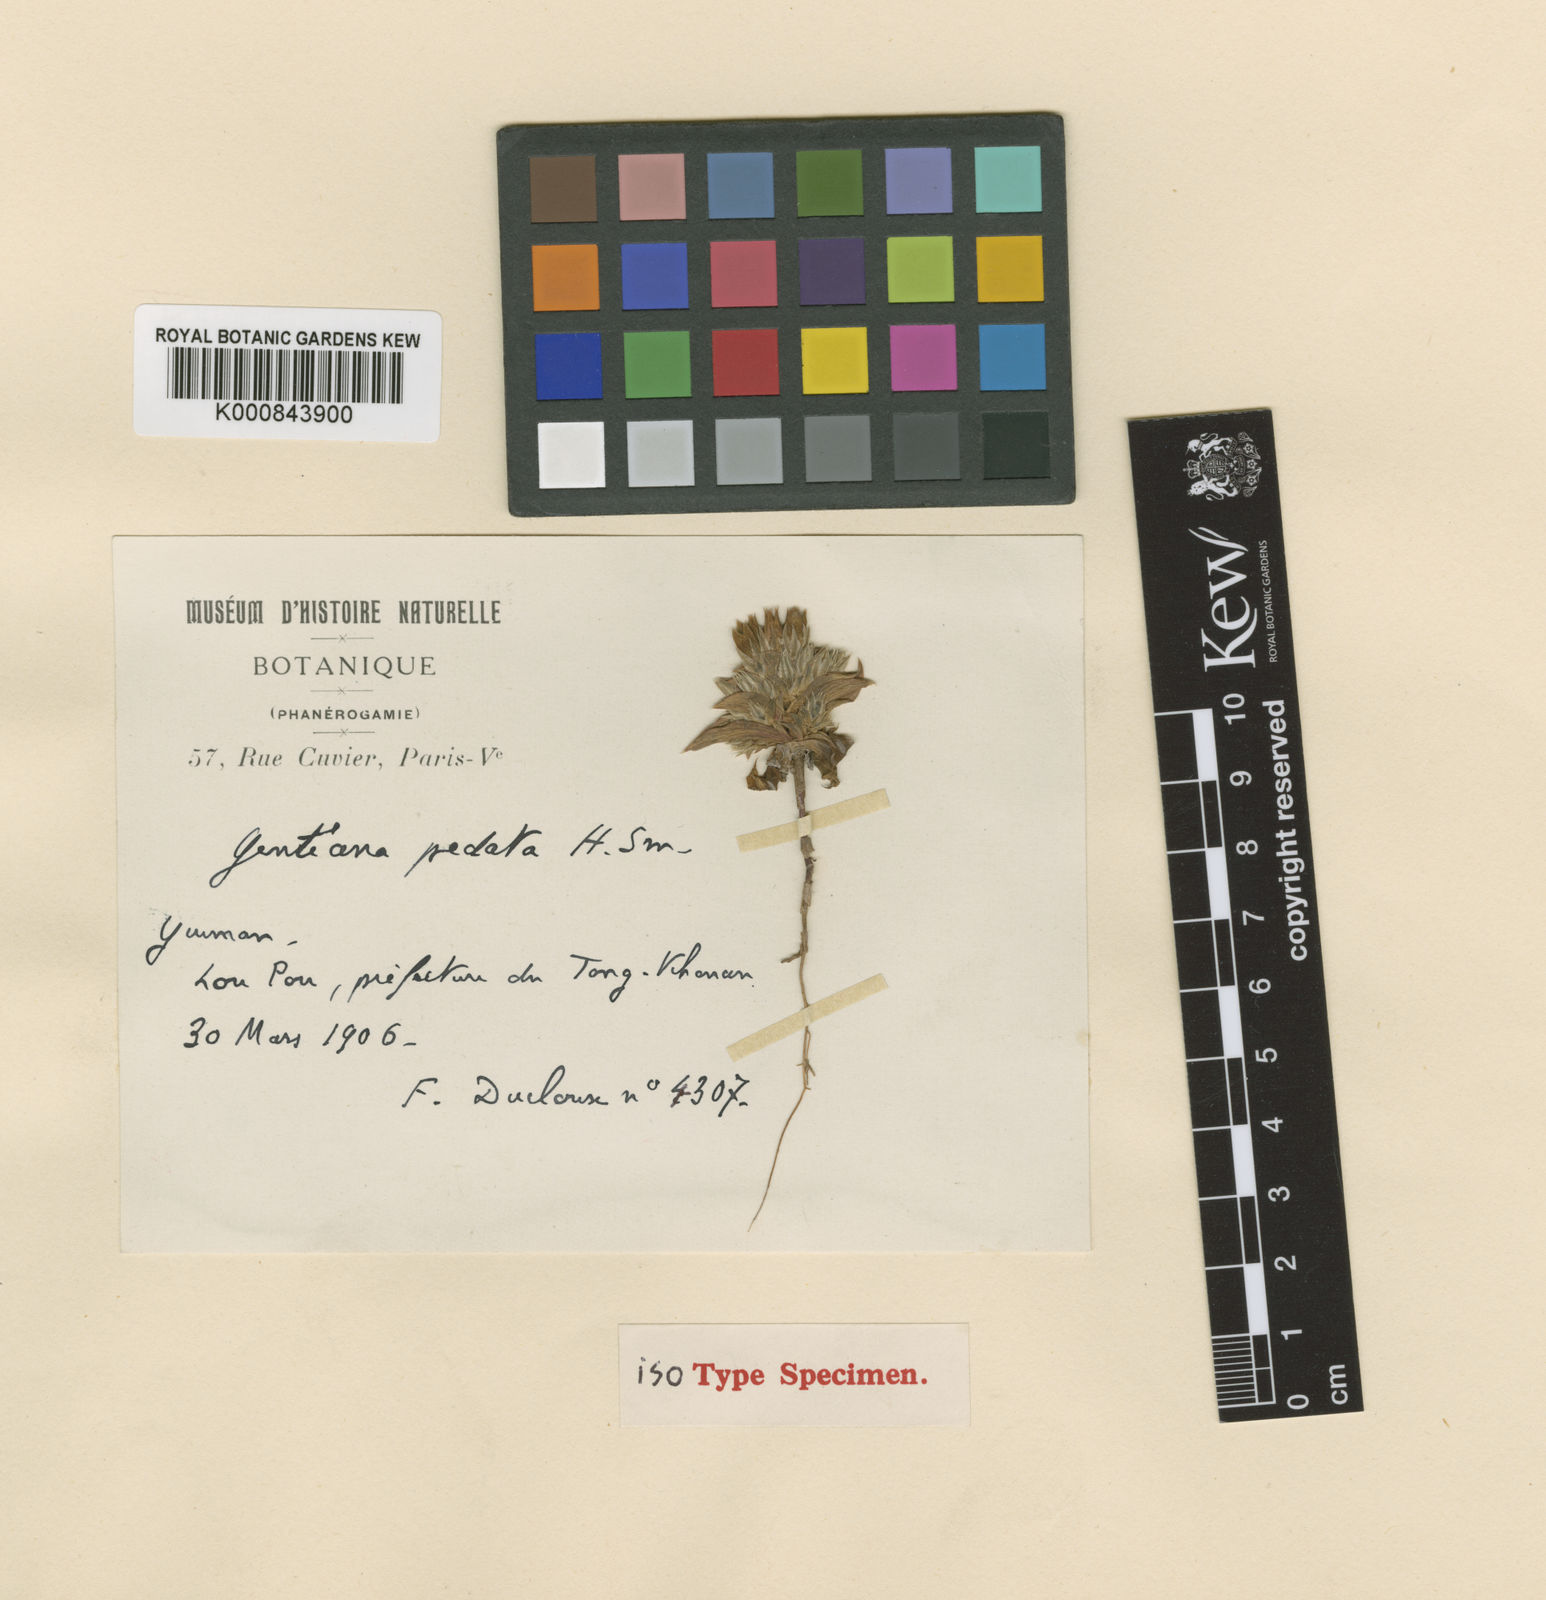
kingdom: Plantae
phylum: Tracheophyta
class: Magnoliopsida
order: Gentianales
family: Gentianaceae
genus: Gentiana
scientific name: Gentiana pedata
